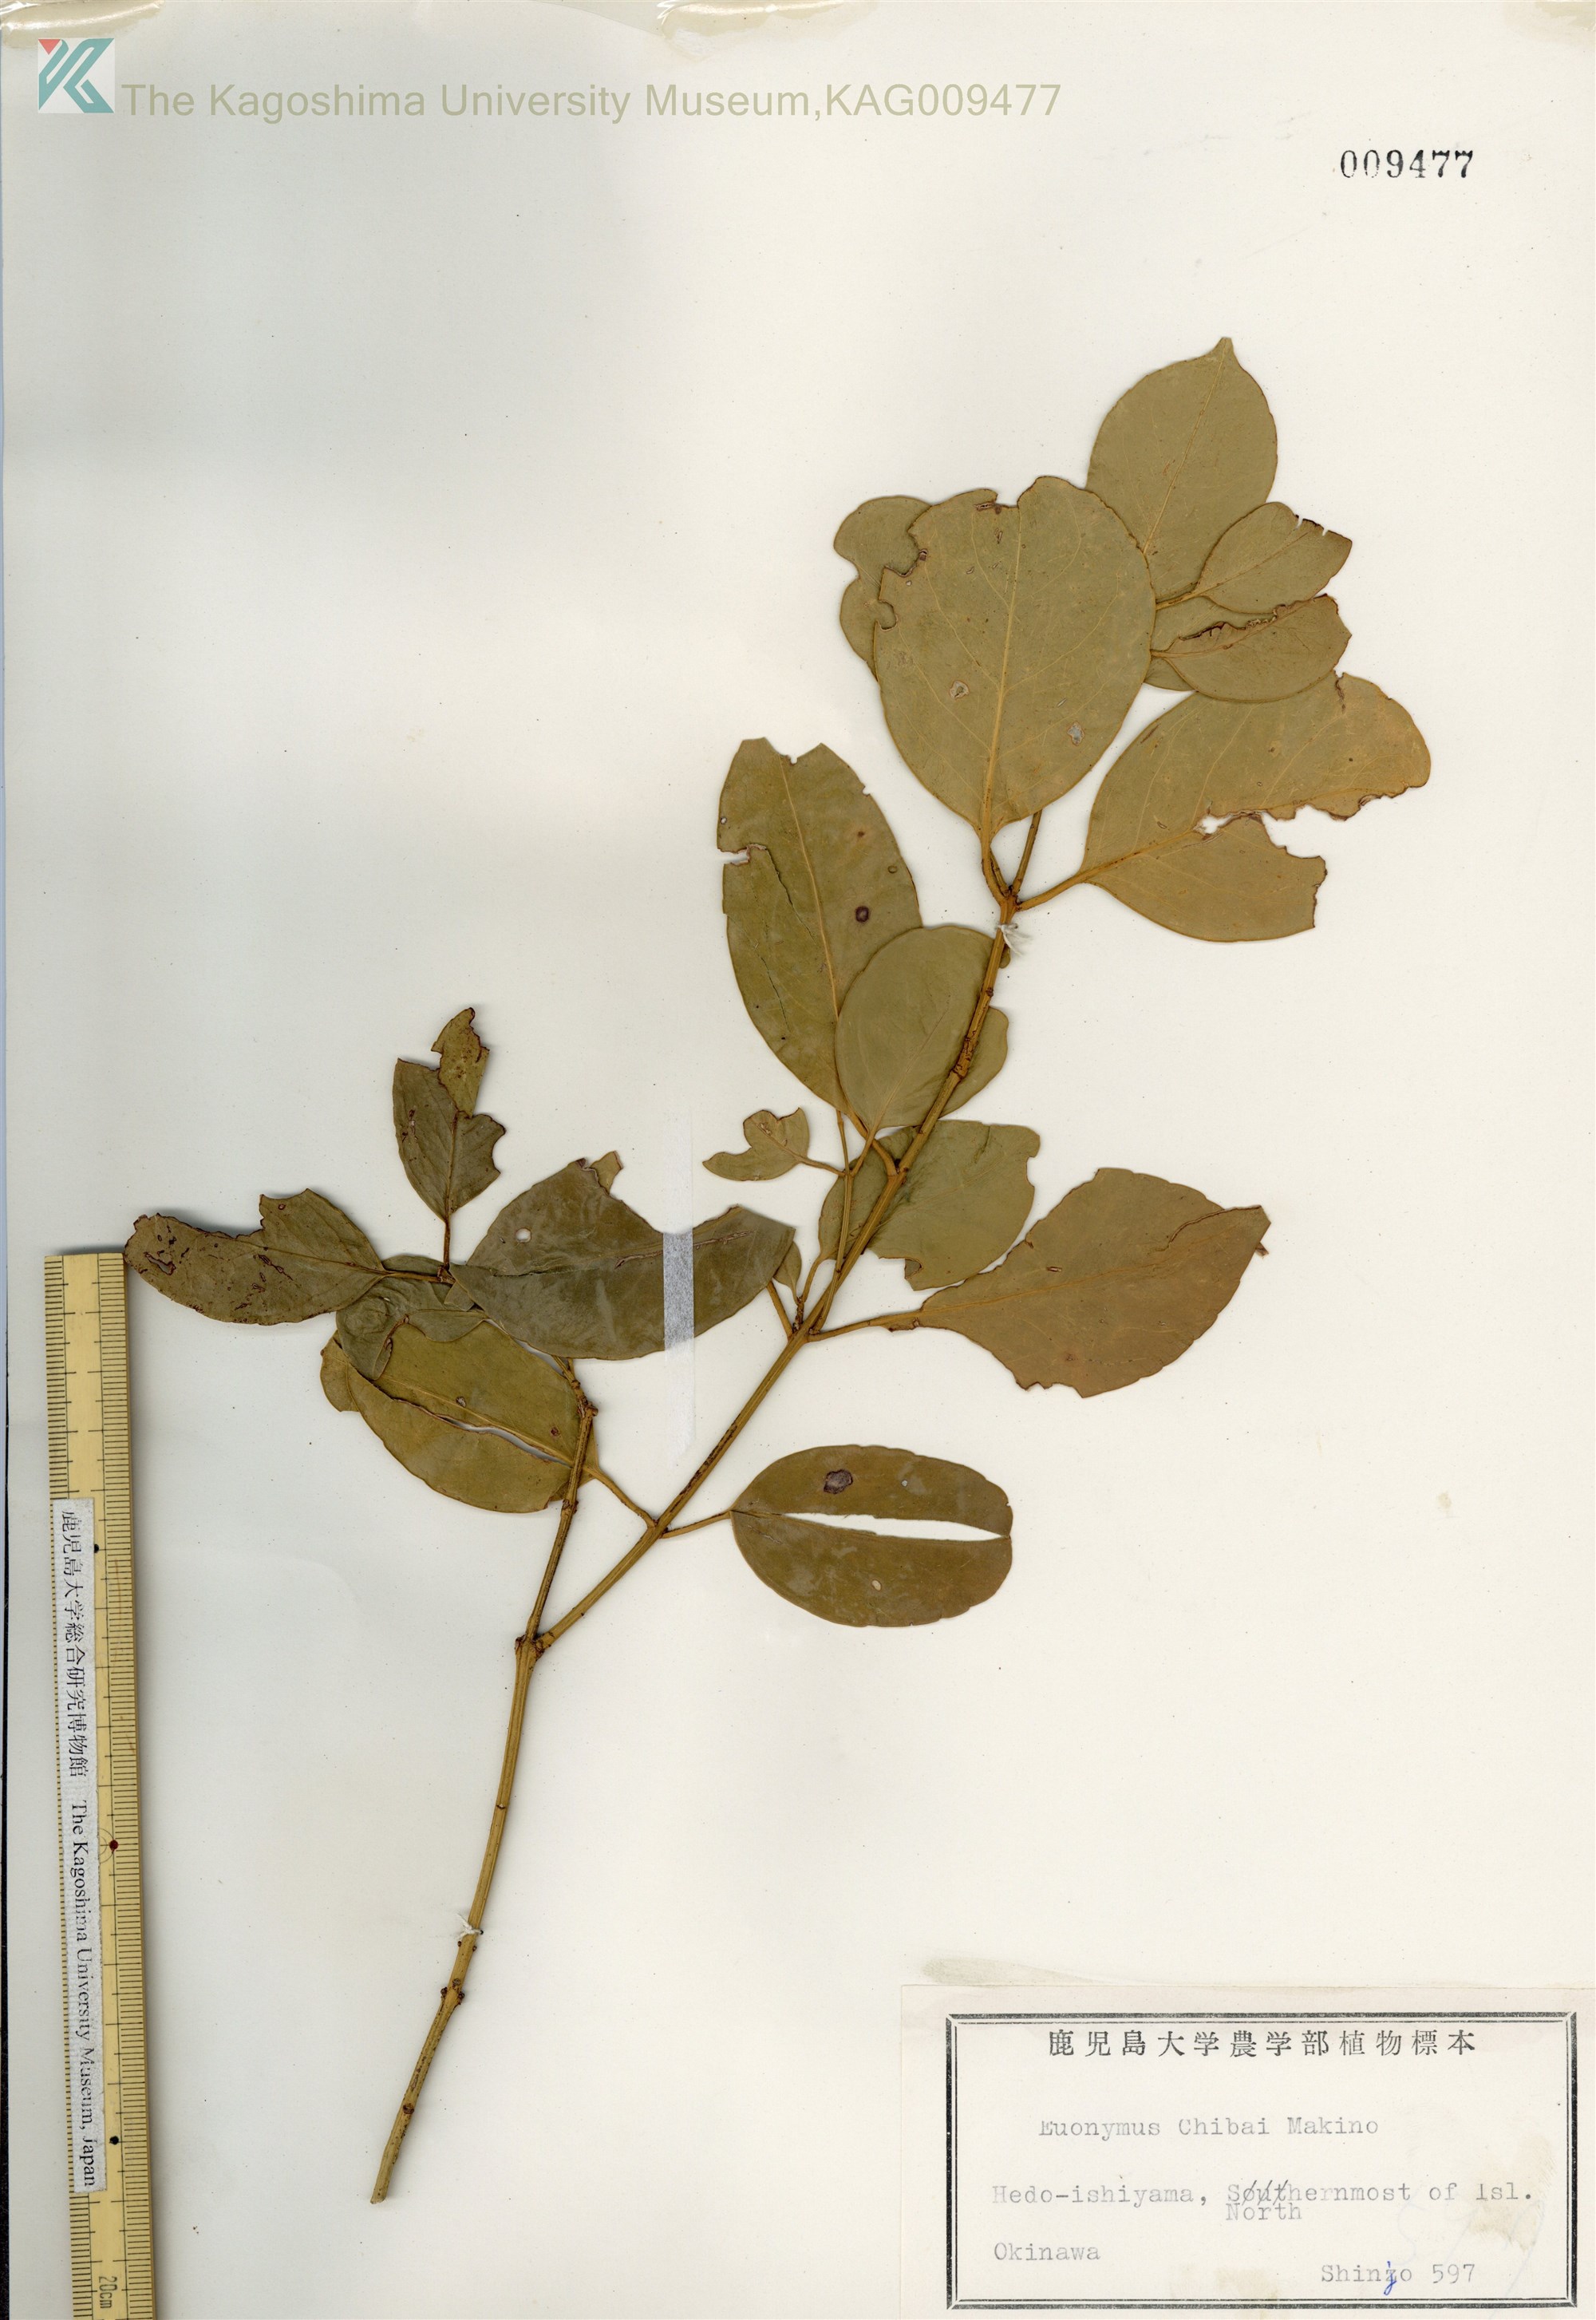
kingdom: Plantae
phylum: Tracheophyta
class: Magnoliopsida
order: Celastrales
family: Celastraceae
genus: Euonymus
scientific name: Euonymus chibae
